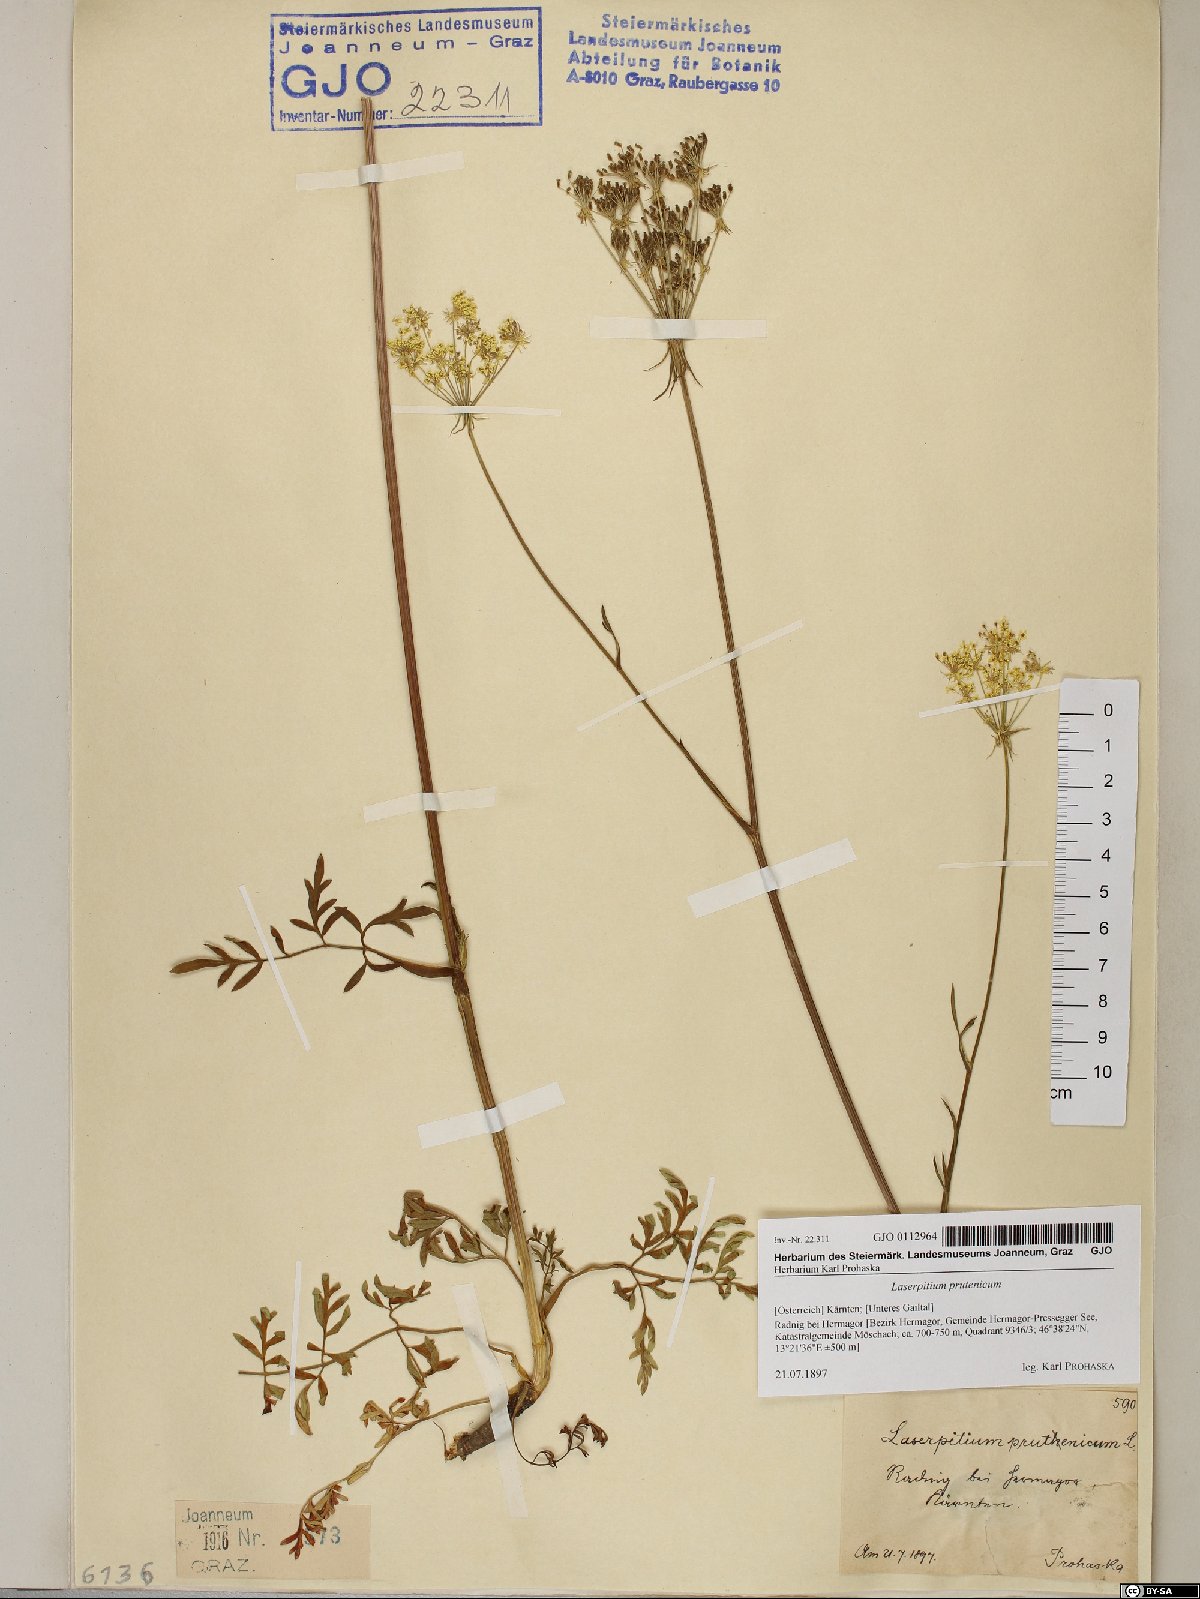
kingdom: Plantae
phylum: Tracheophyta
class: Magnoliopsida
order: Apiales
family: Apiaceae
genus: Silphiodaucus
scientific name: Silphiodaucus prutenicus
